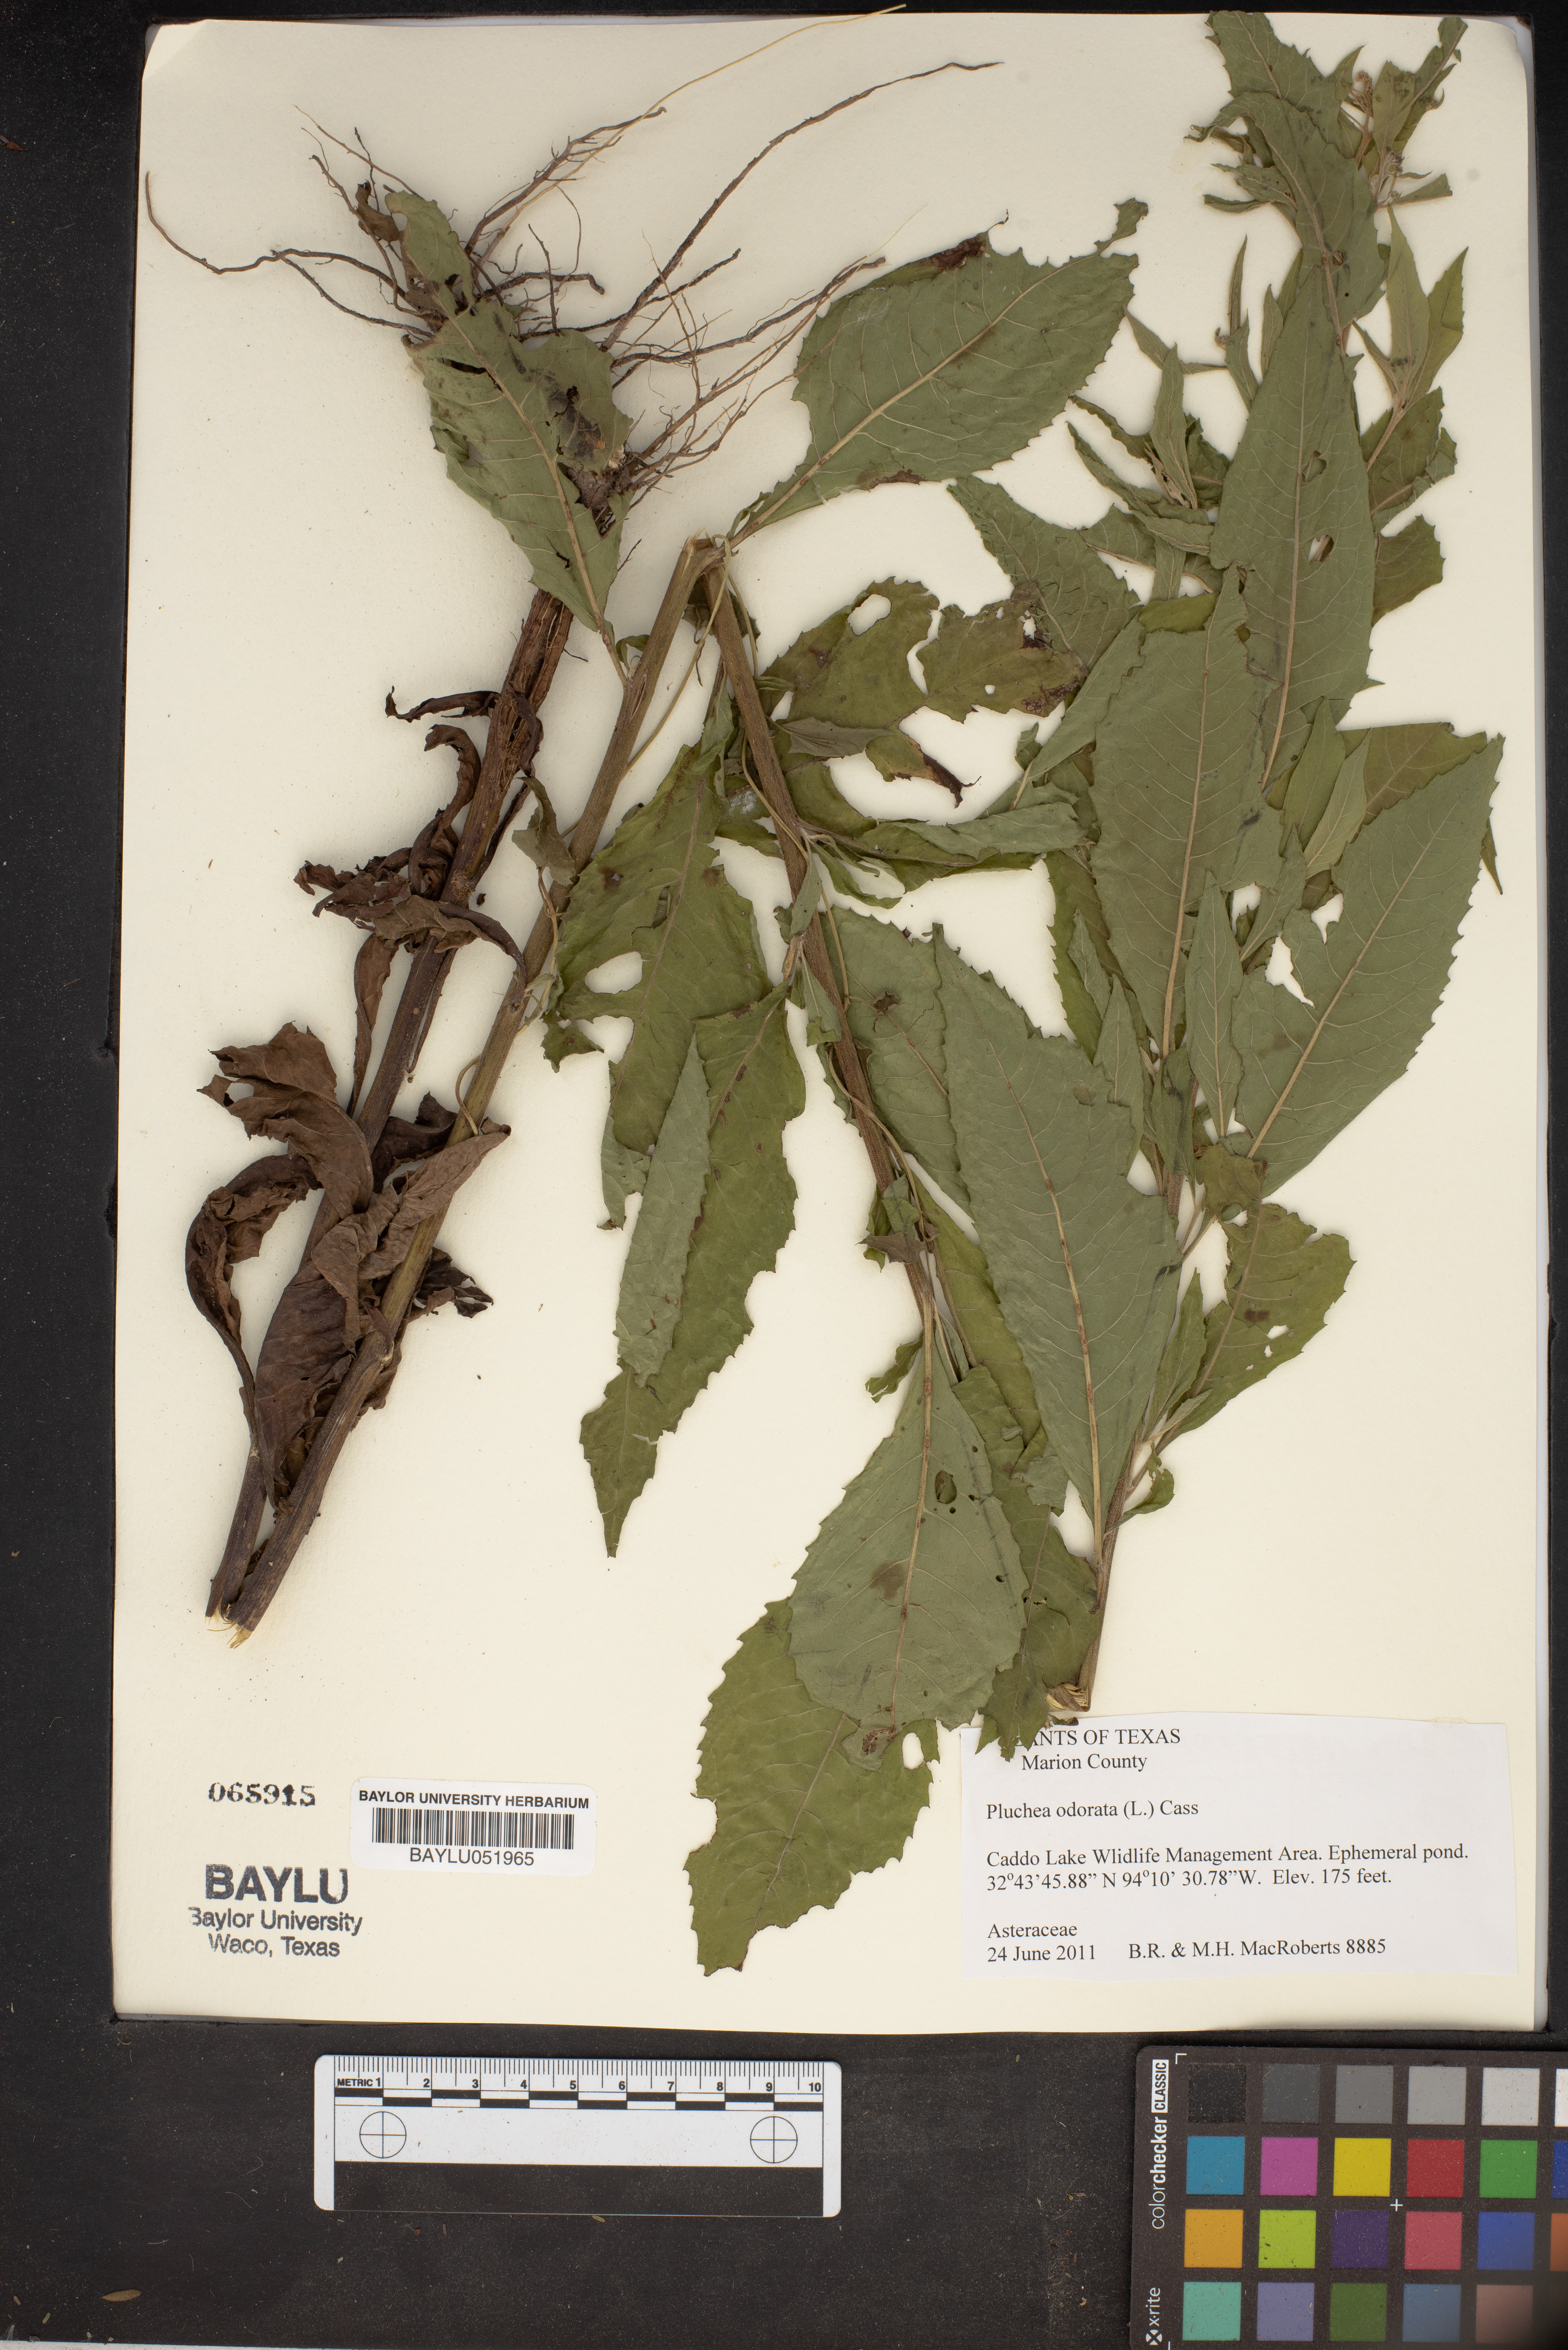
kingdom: Plantae
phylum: Tracheophyta
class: Magnoliopsida
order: Asterales
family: Asteraceae
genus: Pluchea
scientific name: Pluchea odorata
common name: Saltmarsh fleabane
